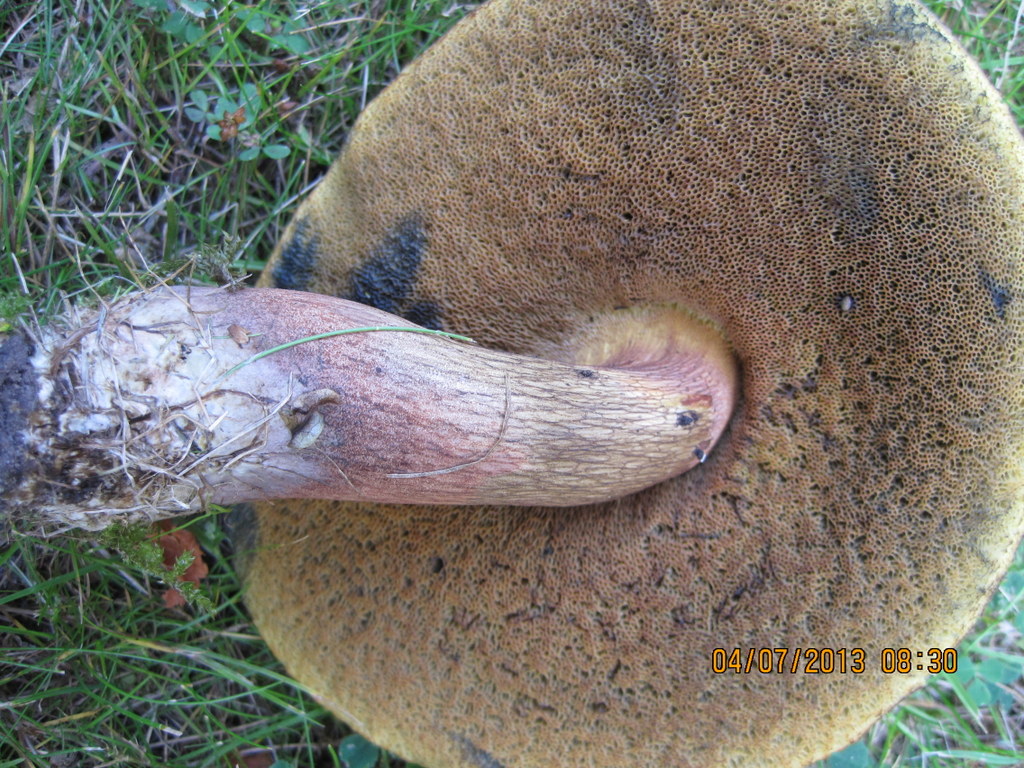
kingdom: Fungi
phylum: Basidiomycota
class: Agaricomycetes
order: Boletales
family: Boletaceae
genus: Suillellus
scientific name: Suillellus luridus
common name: netstokket indigorørhat
